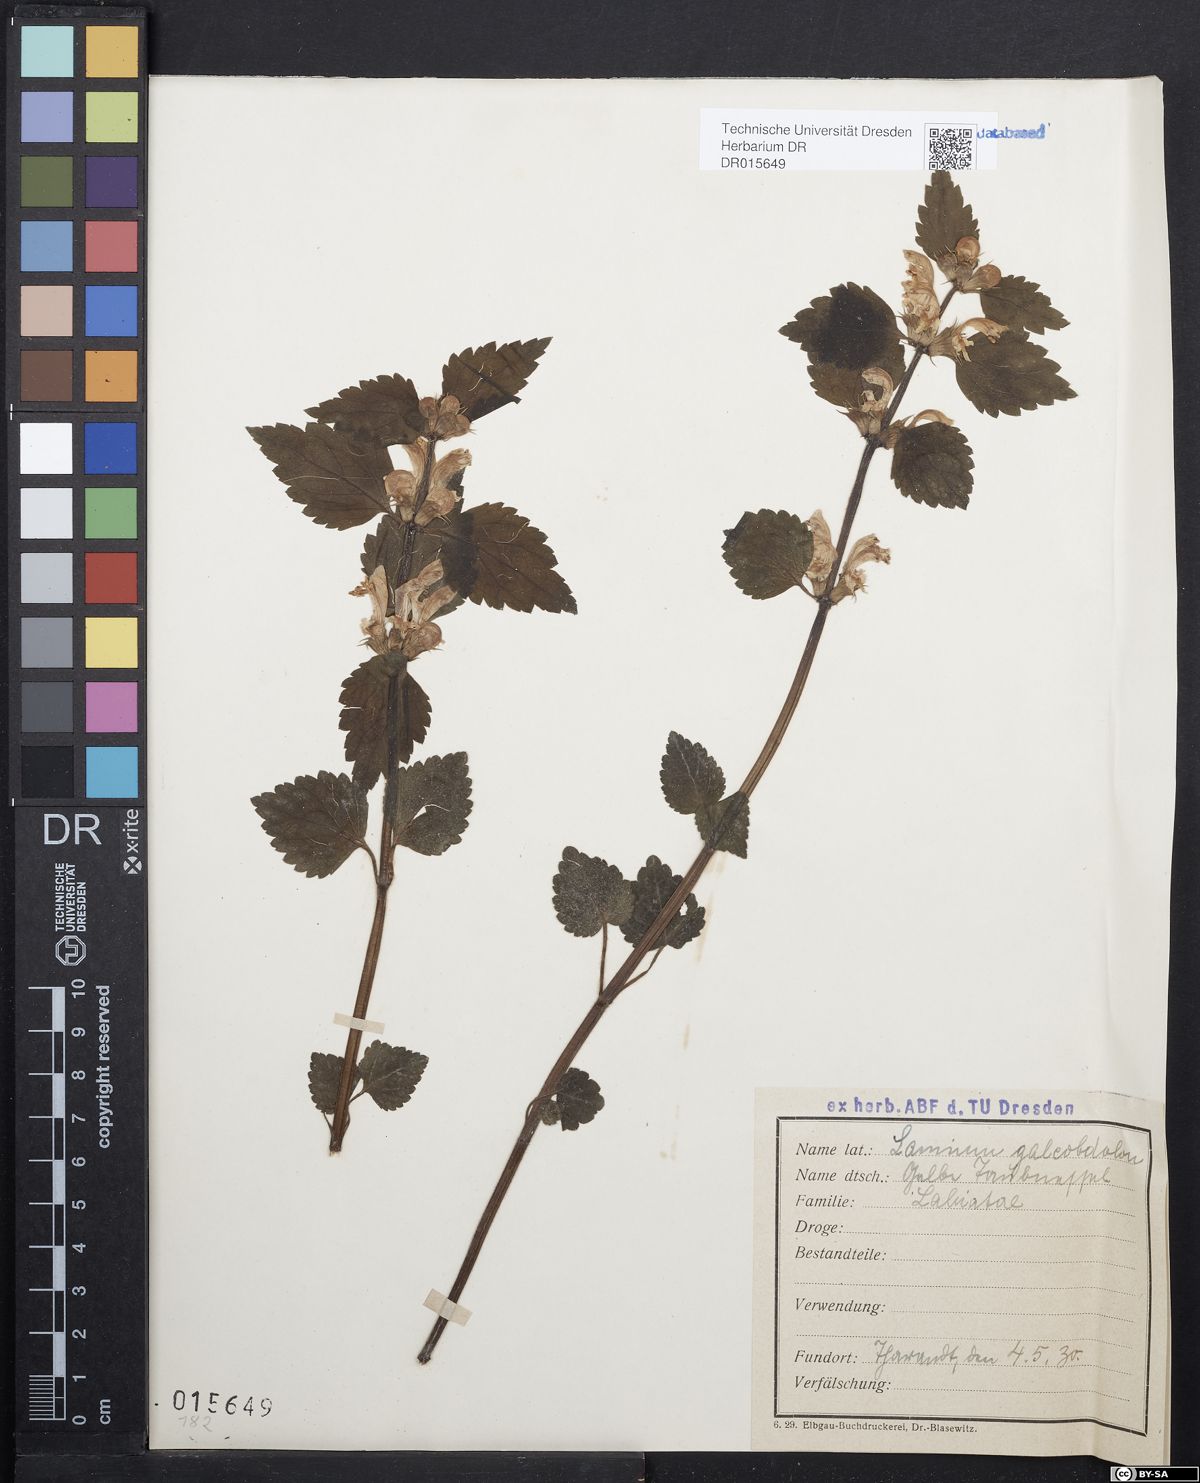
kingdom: Plantae
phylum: Tracheophyta
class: Magnoliopsida
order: Lamiales
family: Lamiaceae
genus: Lamium
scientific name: Lamium galeobdolon
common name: Yellow archangel
